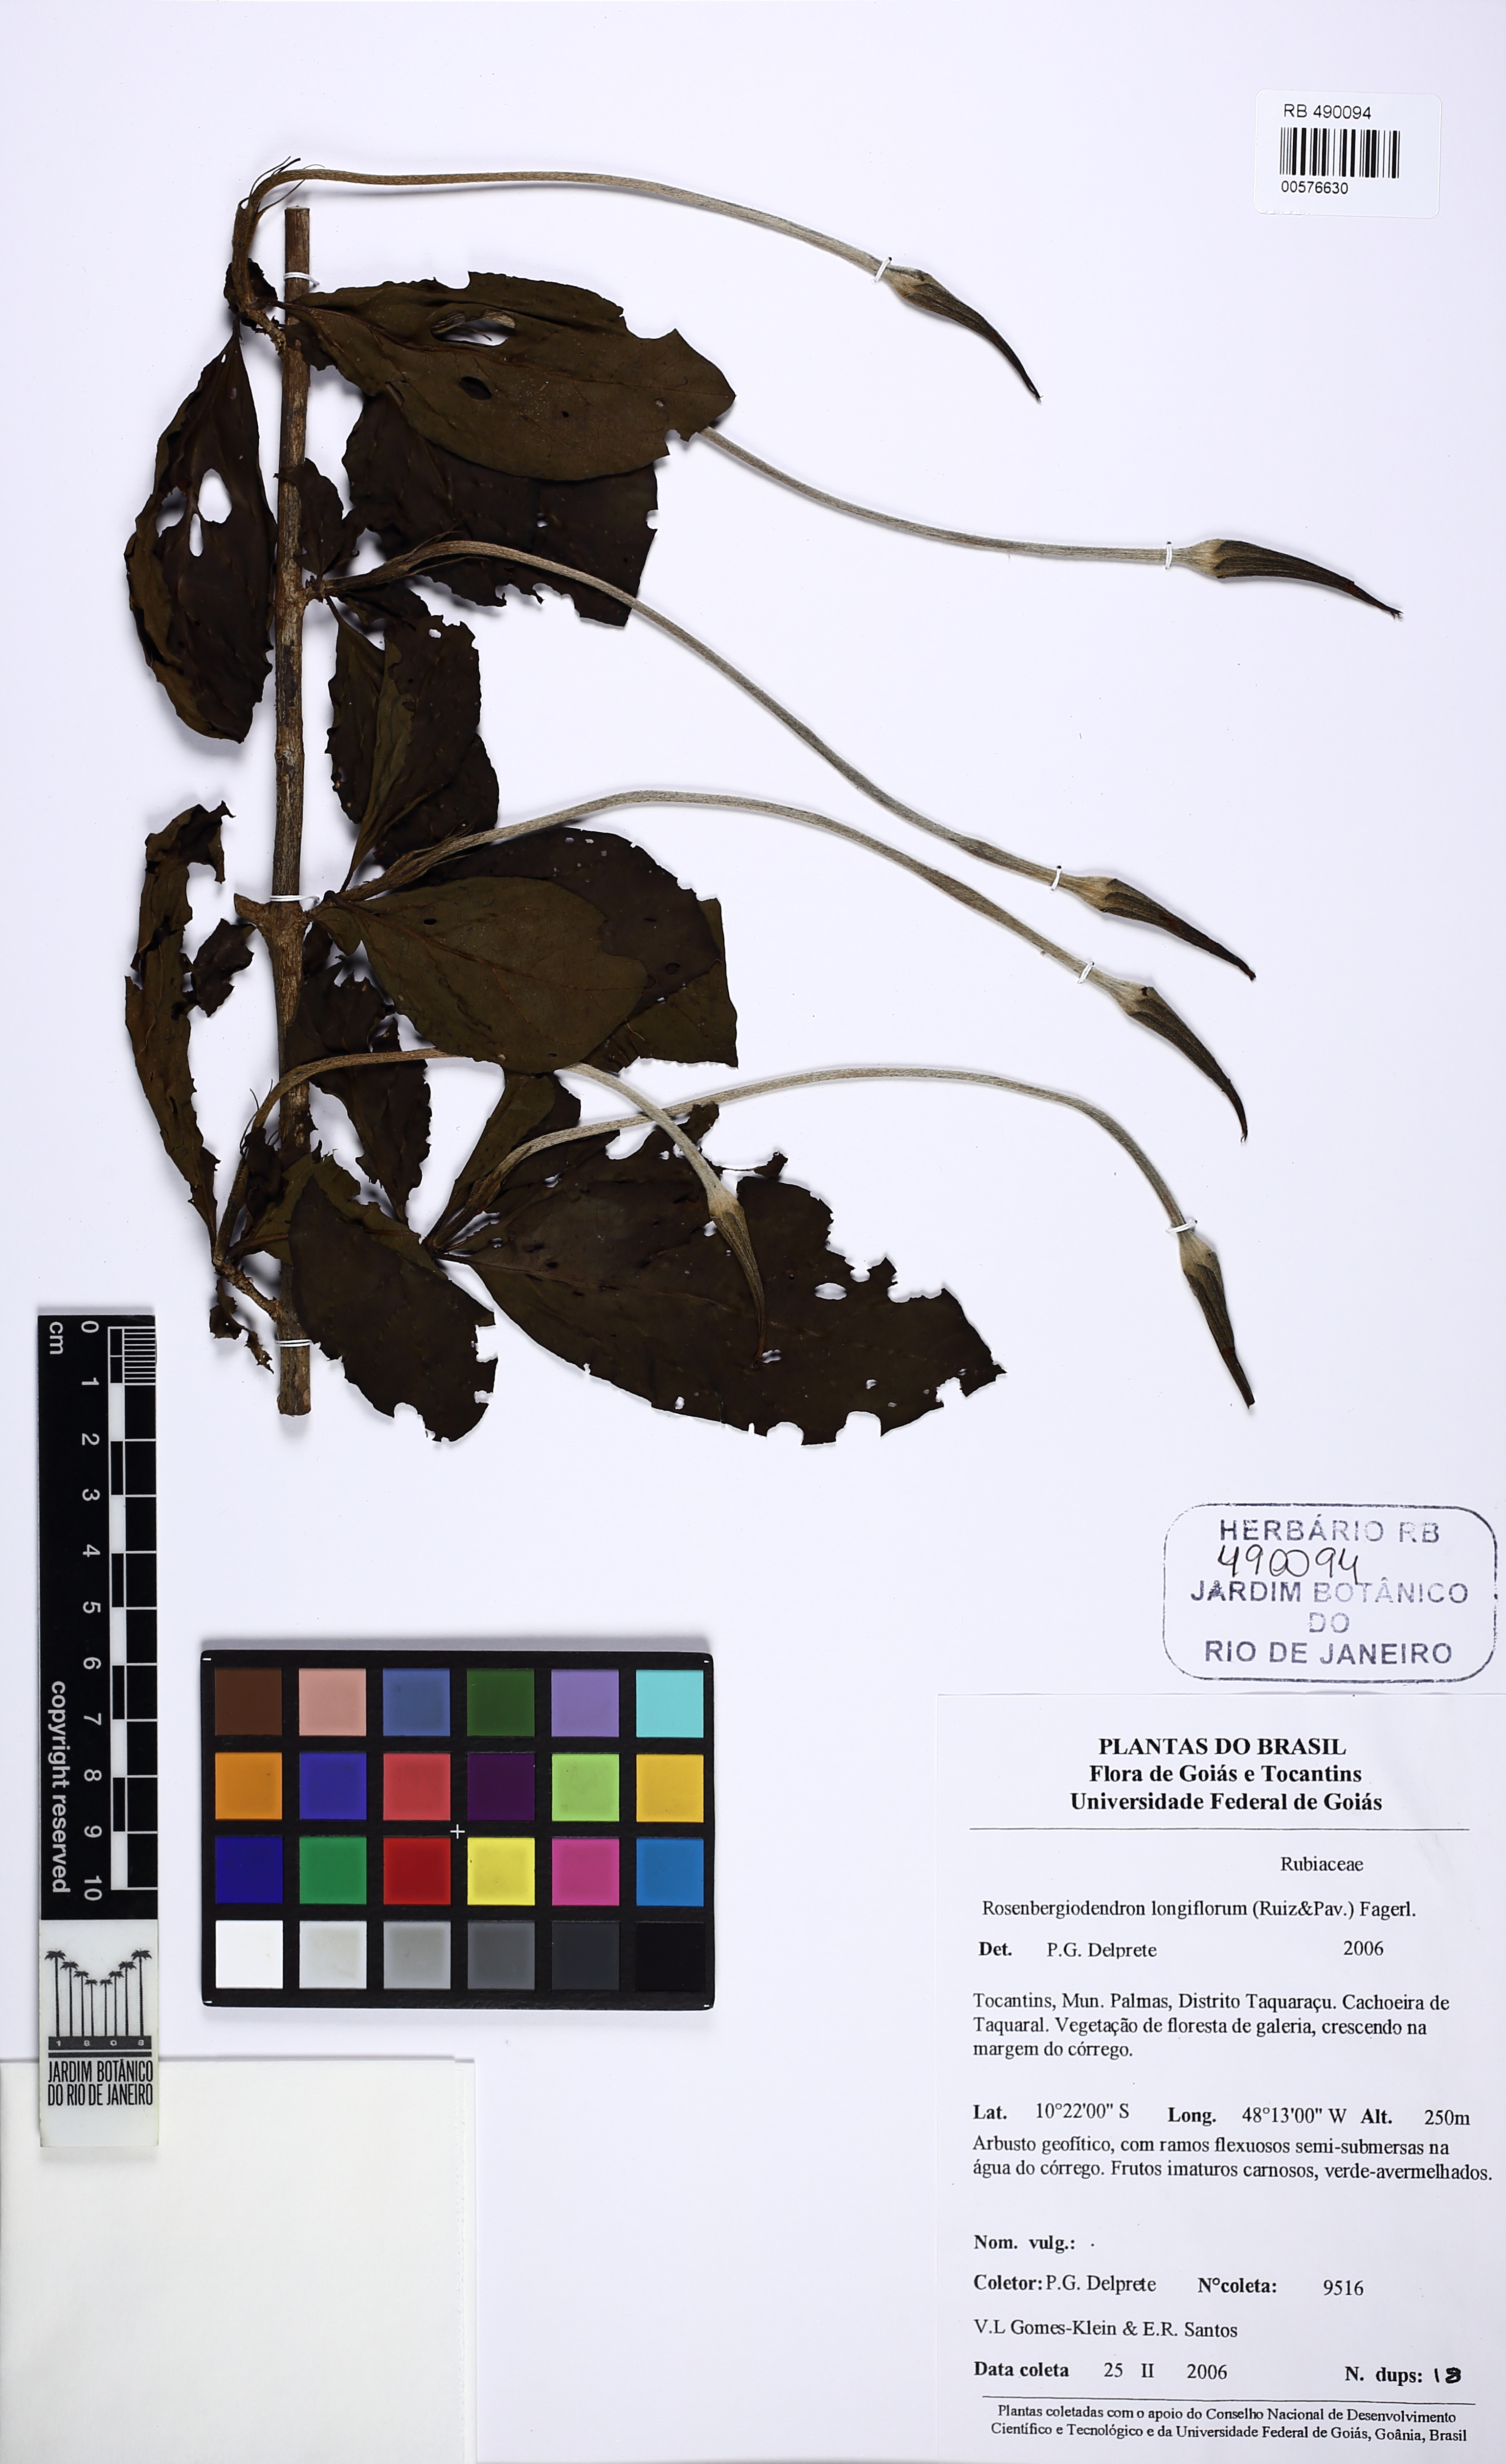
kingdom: Plantae
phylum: Tracheophyta
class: Magnoliopsida
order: Gentianales
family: Rubiaceae
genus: Rosenbergiodendron
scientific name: Rosenbergiodendron longiflorum
